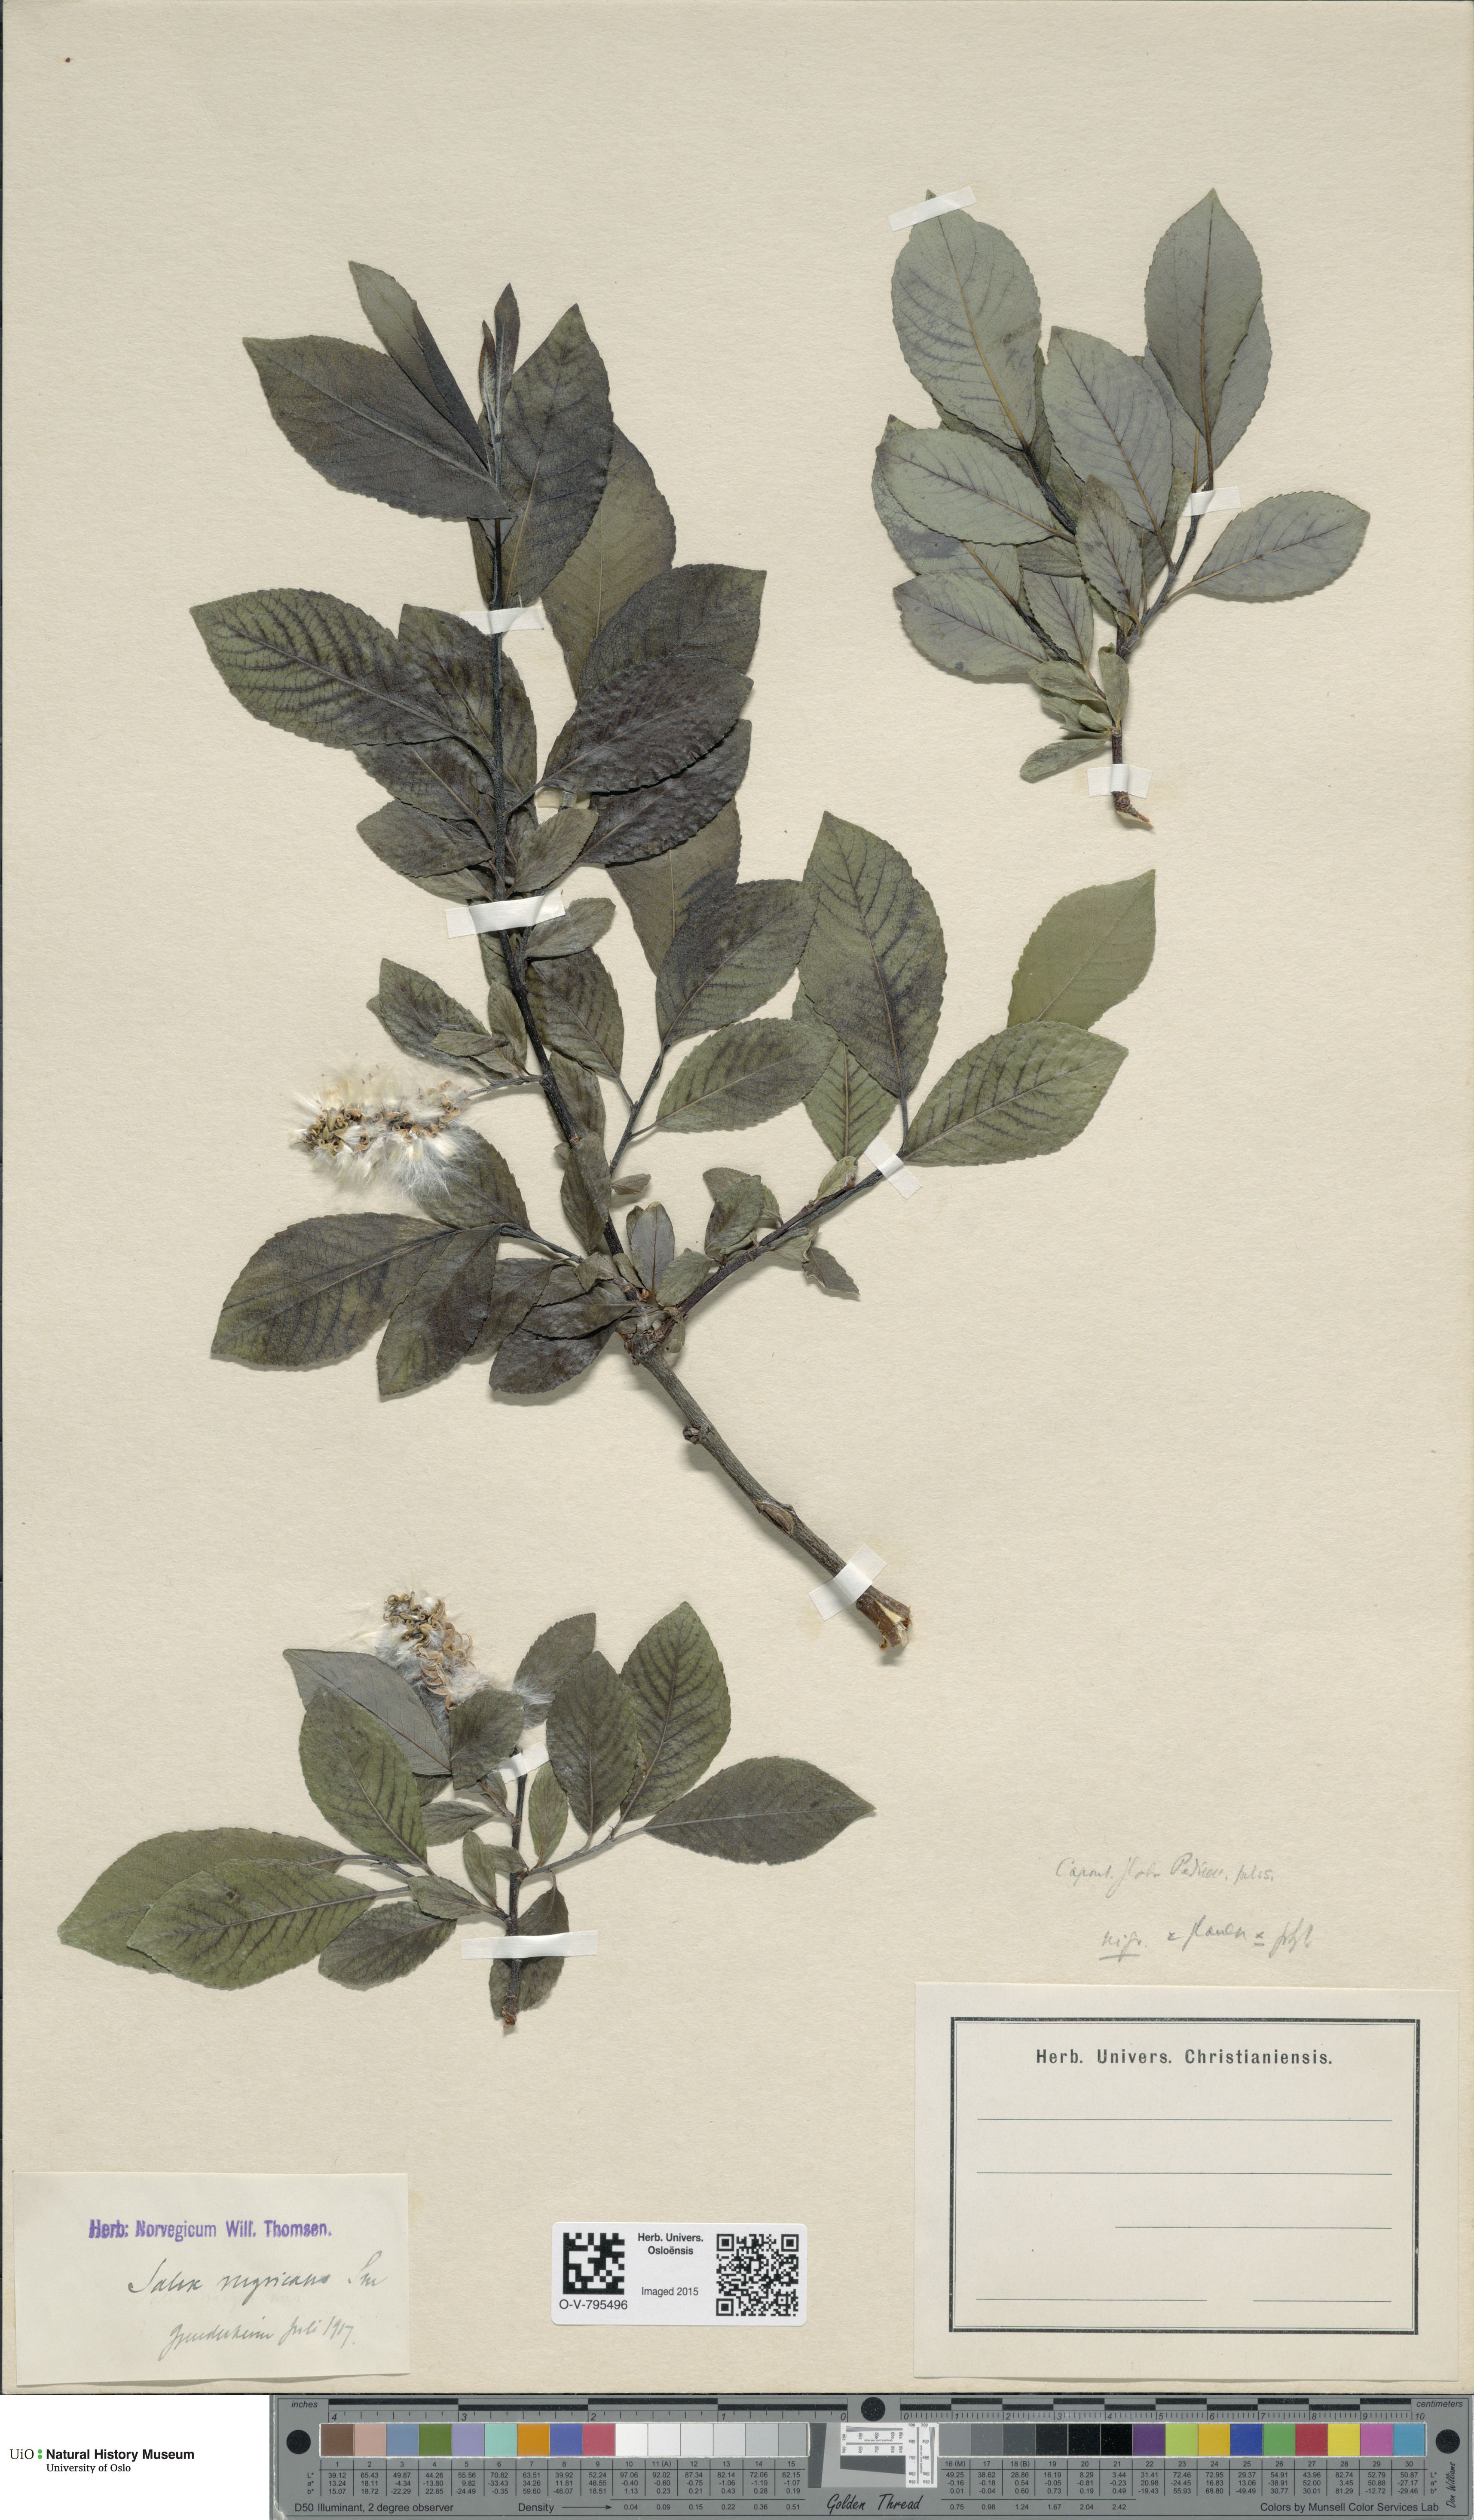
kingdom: Plantae
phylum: Tracheophyta
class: Magnoliopsida
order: Malpighiales
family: Salicaceae
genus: Salix
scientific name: Salix
